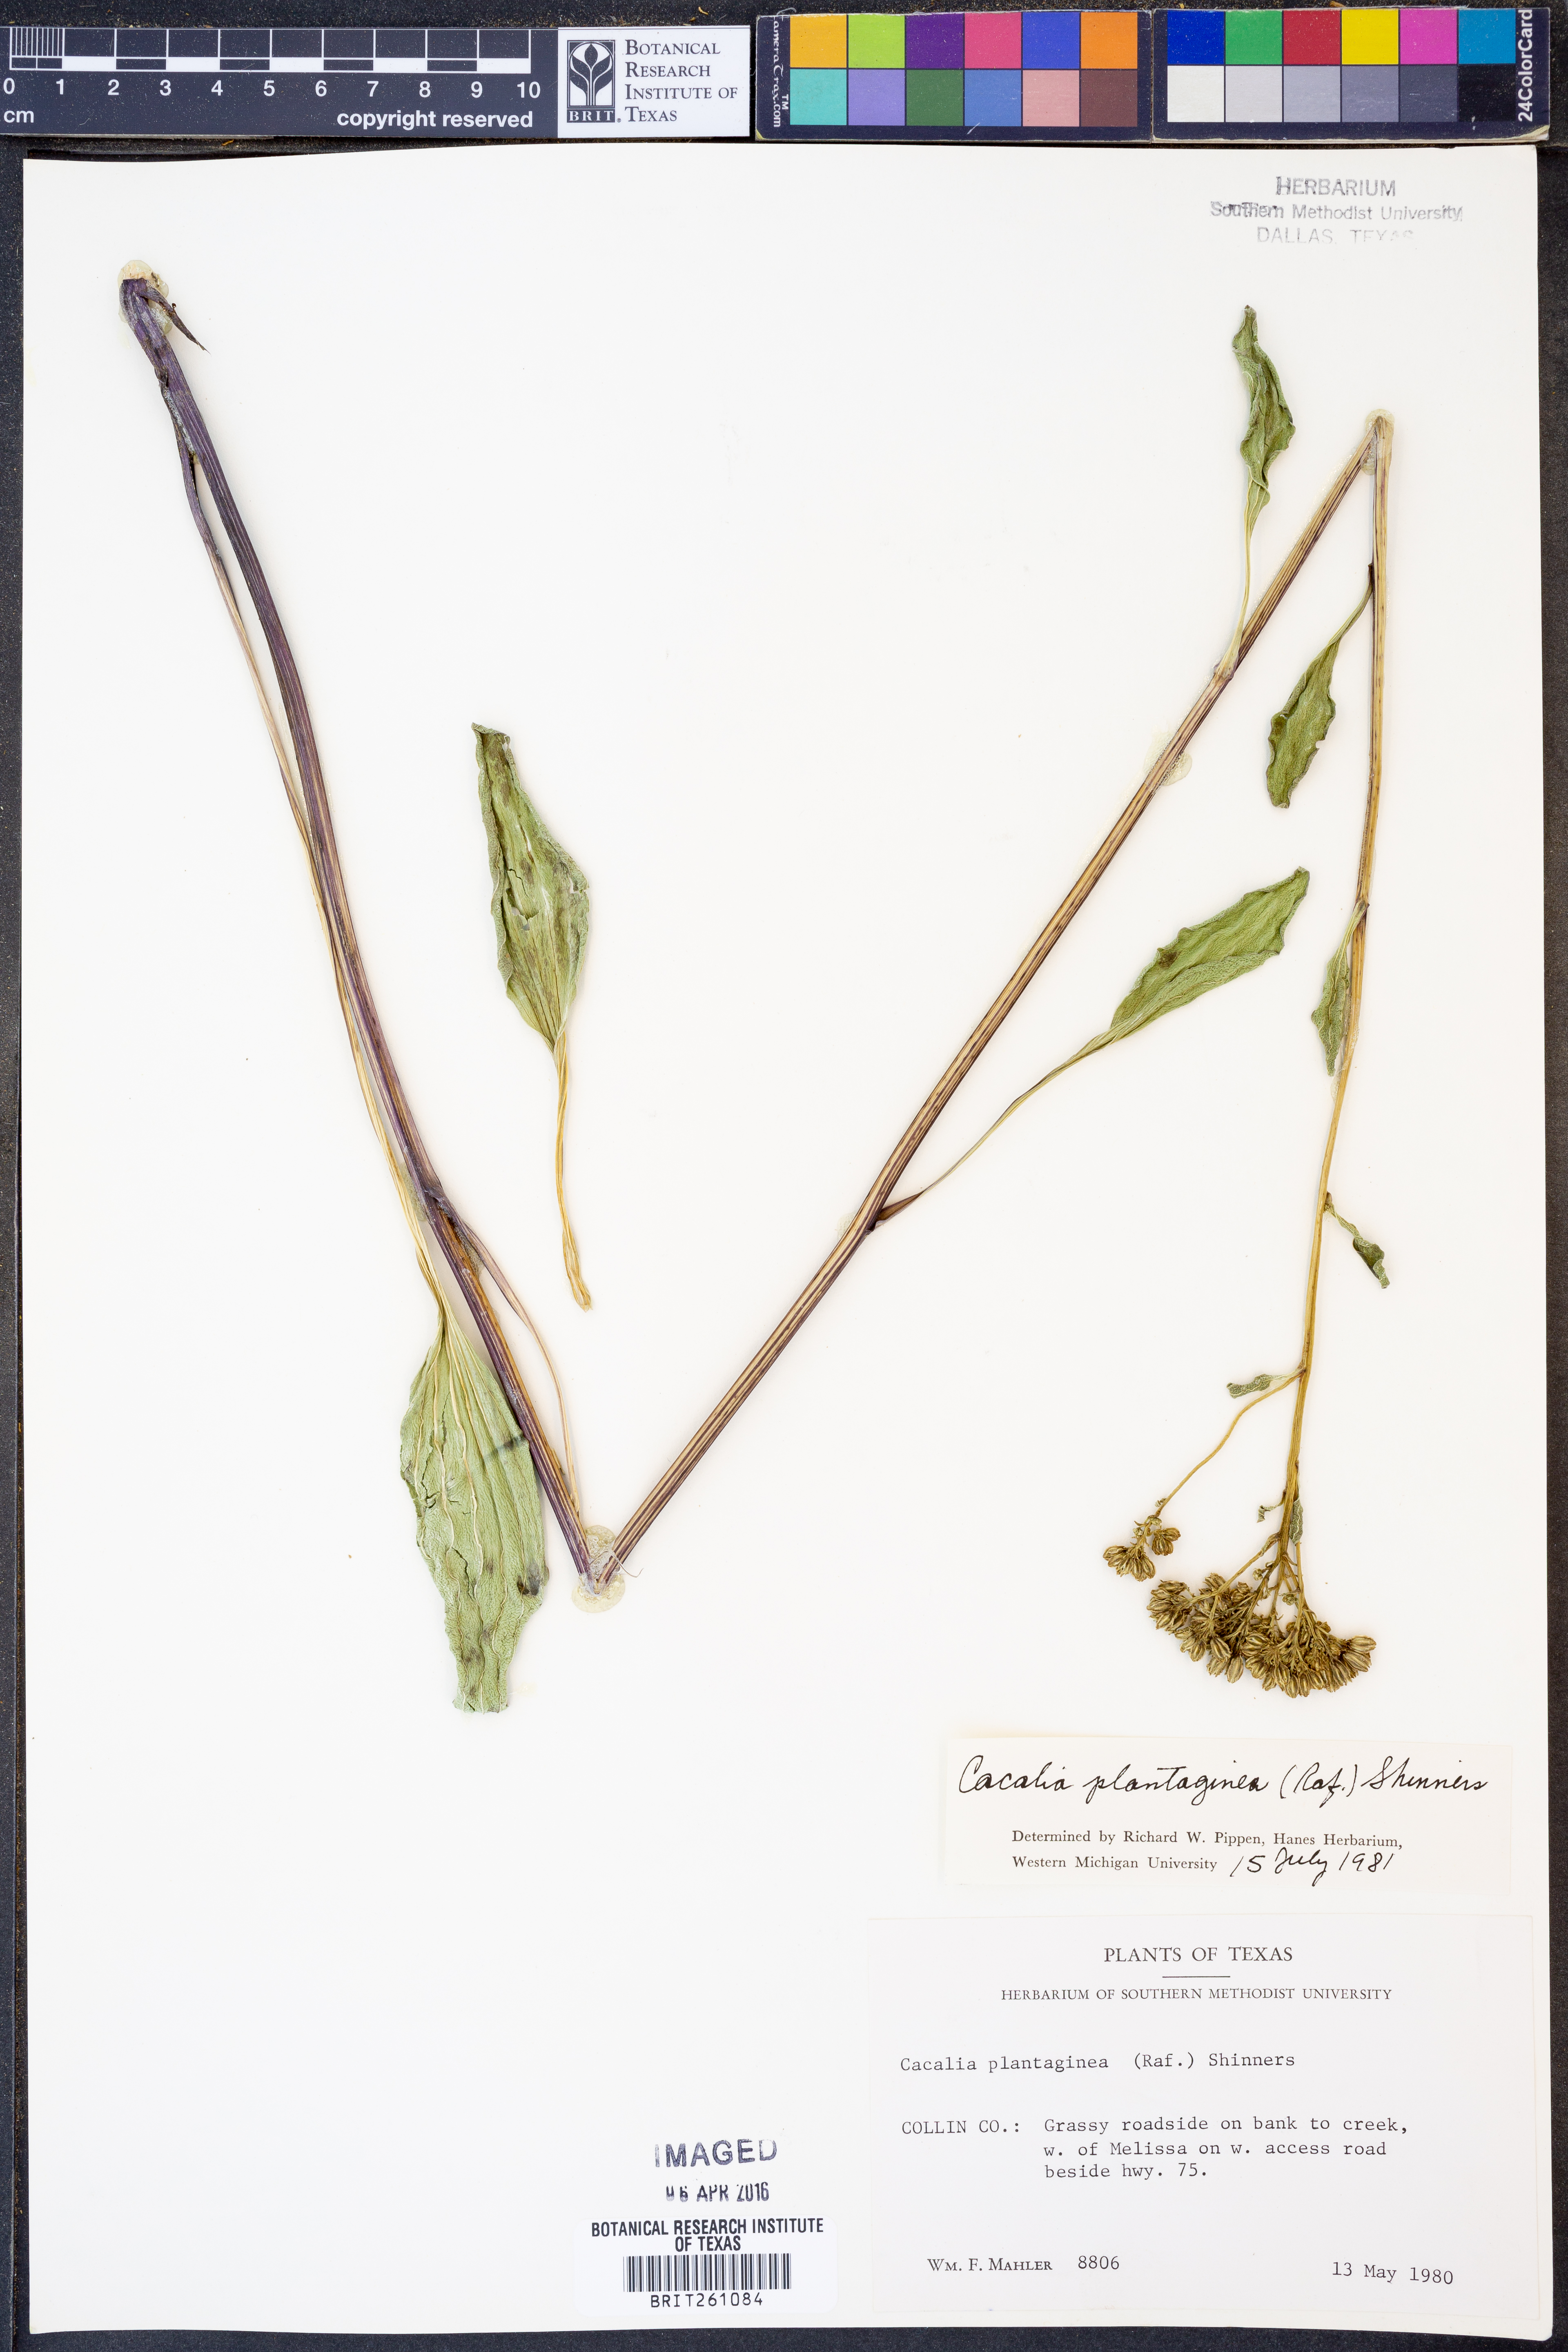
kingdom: Plantae
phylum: Tracheophyta
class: Magnoliopsida
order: Asterales
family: Asteraceae
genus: Arnoglossum
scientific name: Arnoglossum plantagineum
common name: Groove-stemmed indian-plantain
